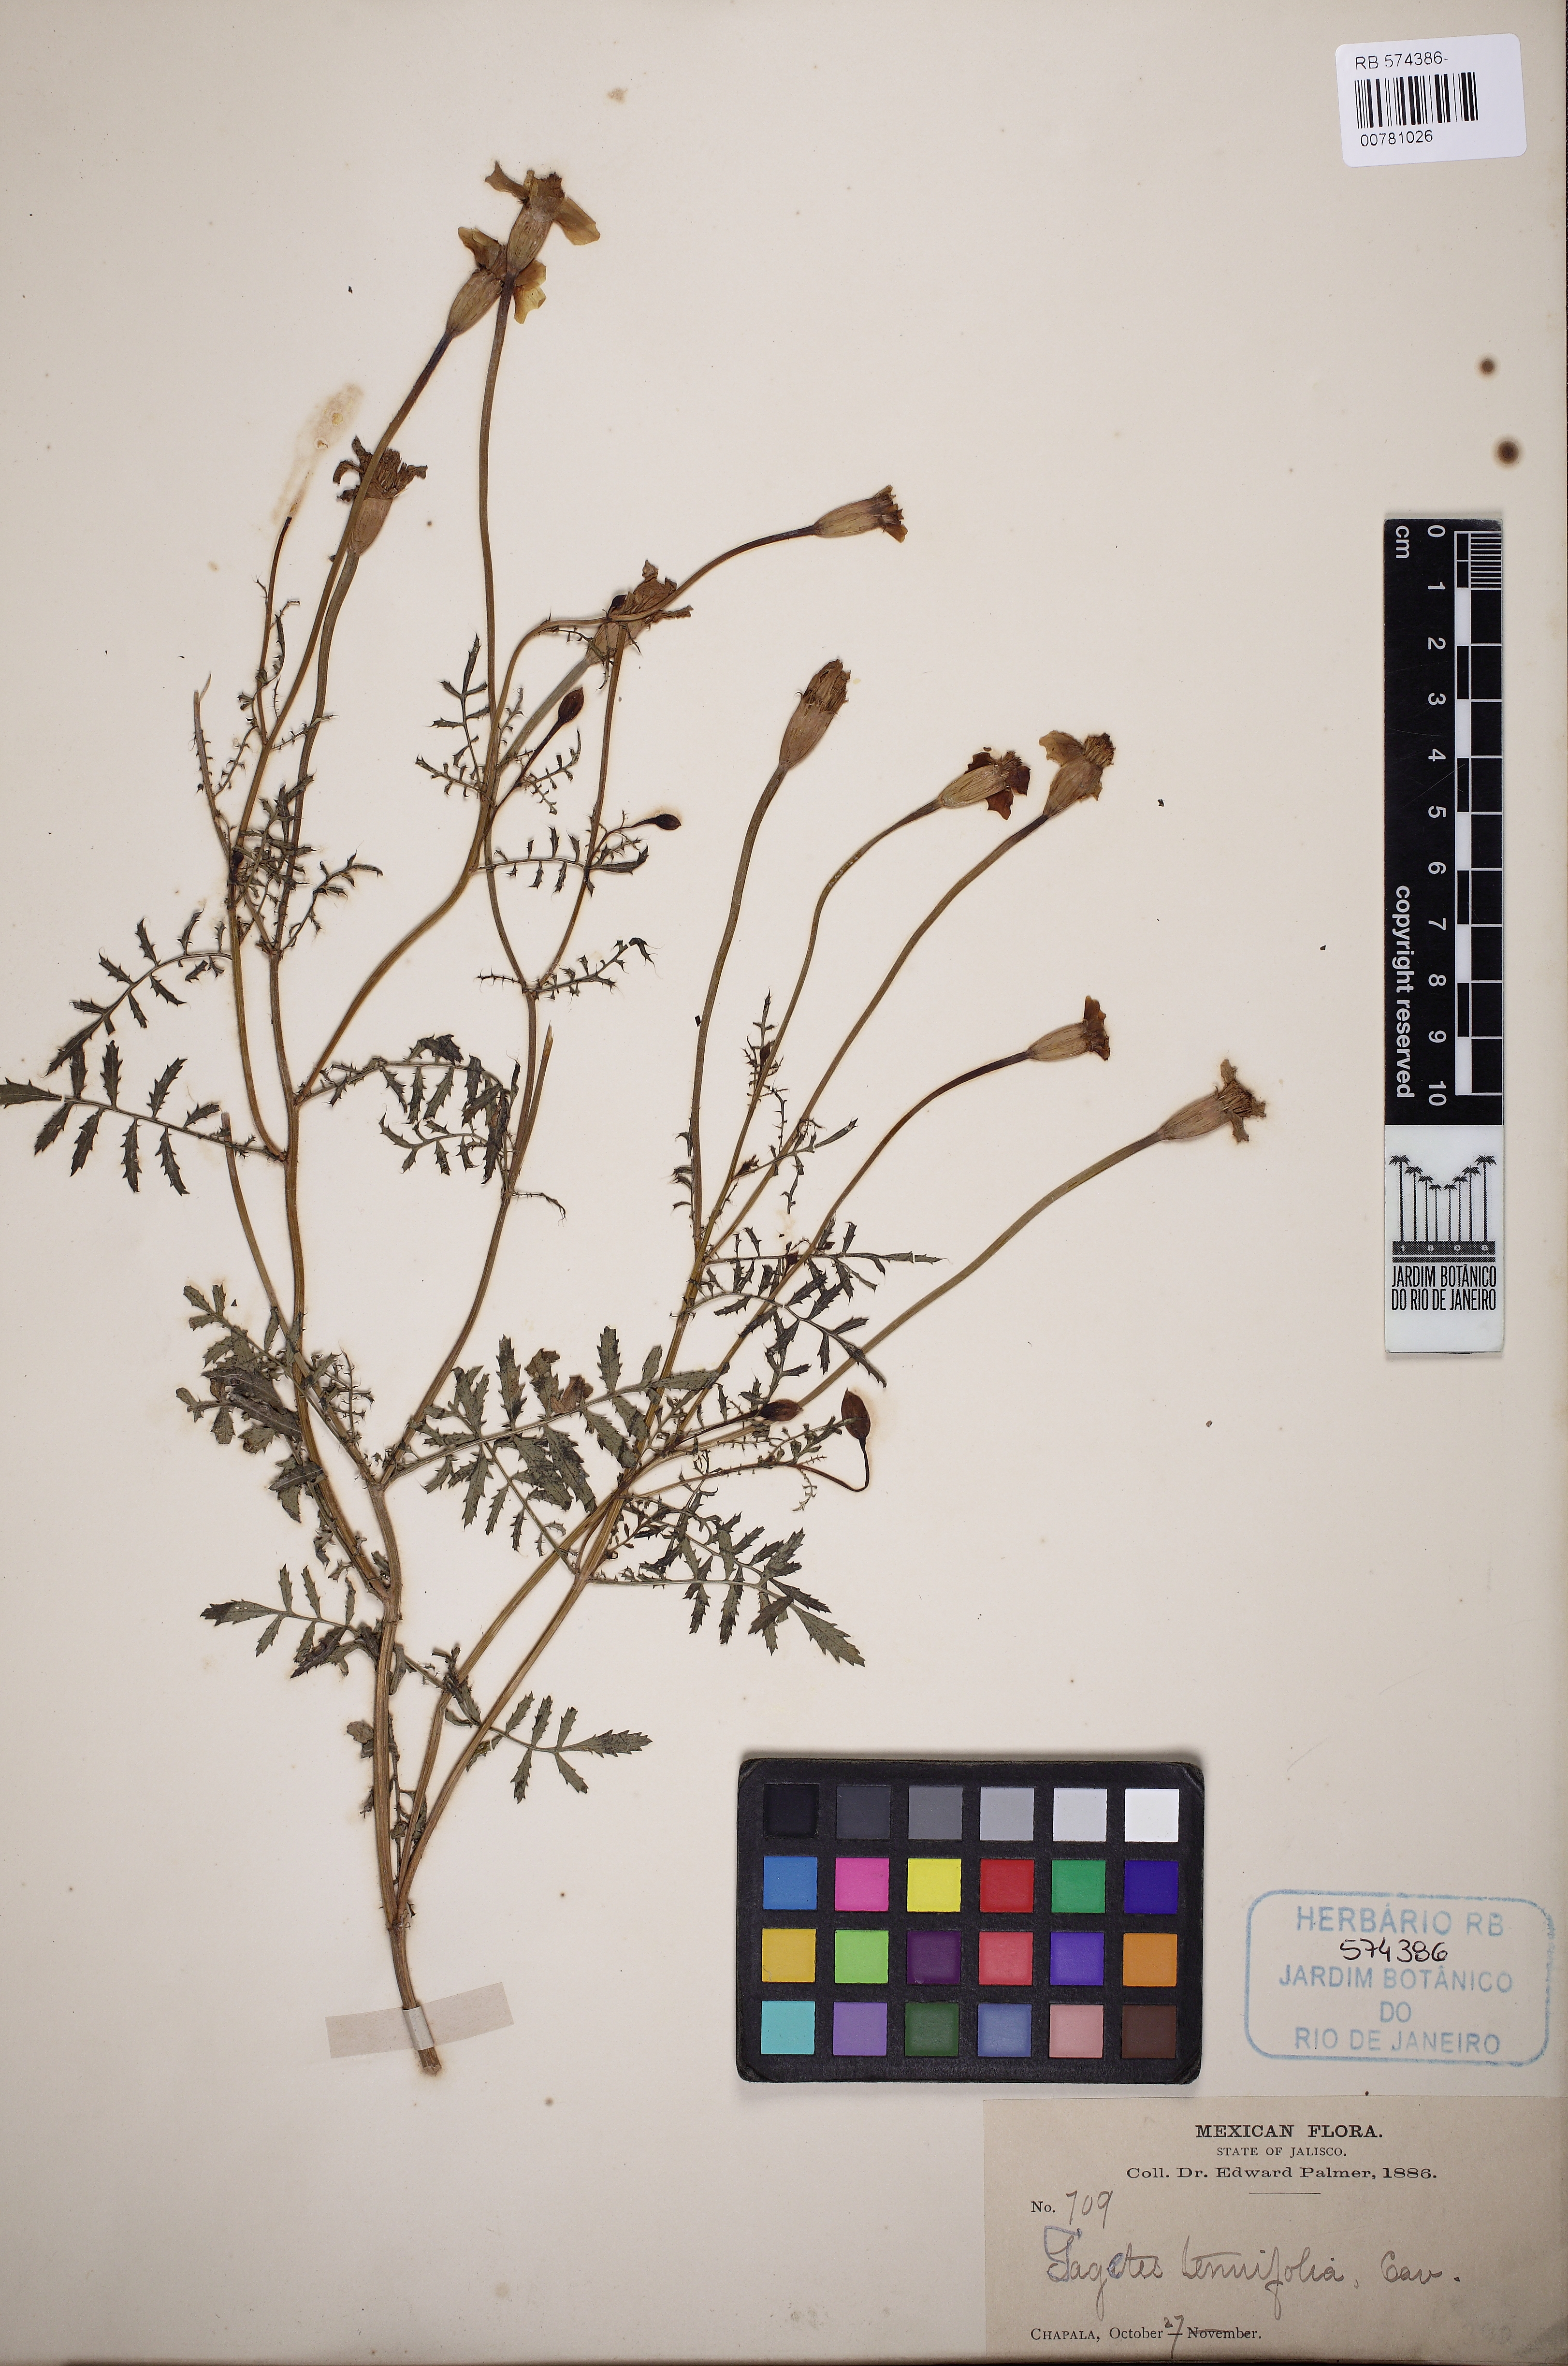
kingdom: Plantae
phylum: Tracheophyta
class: Magnoliopsida
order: Asterales
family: Asteraceae
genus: Tagetes
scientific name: Tagetes tenuifolia
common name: Signet marigold
